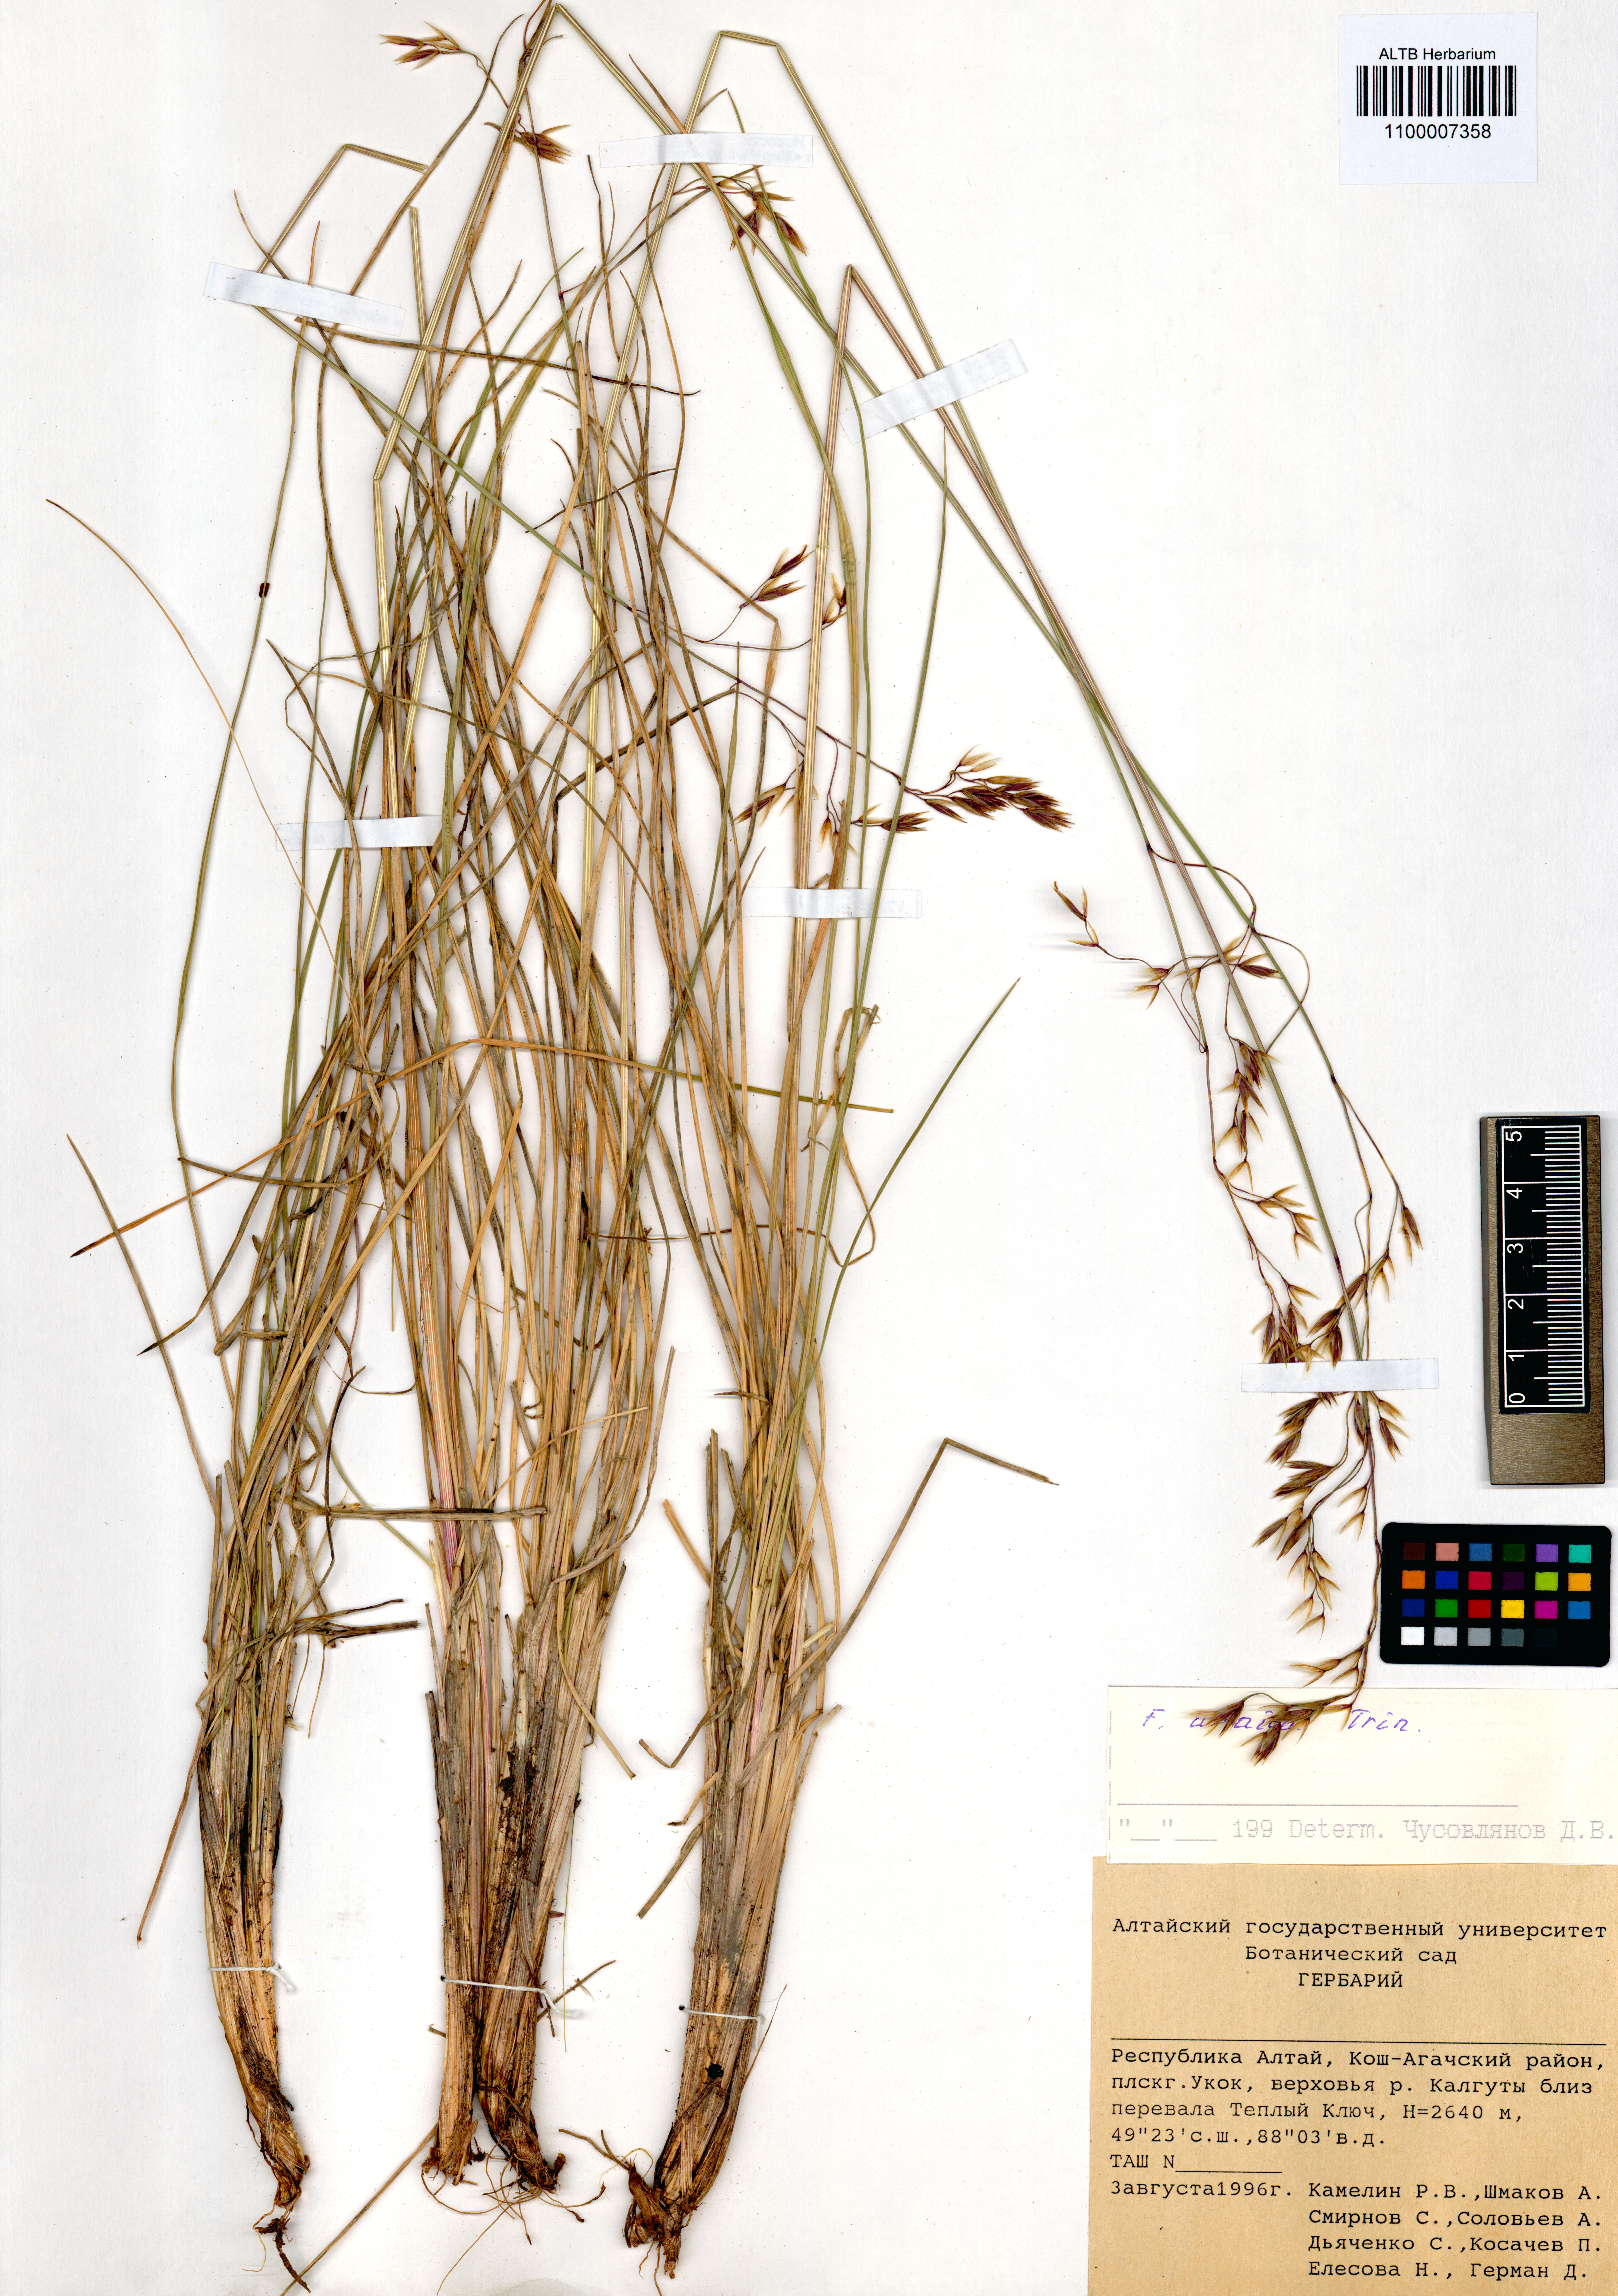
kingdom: Plantae
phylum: Tracheophyta
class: Liliopsida
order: Poales
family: Poaceae
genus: Festuca
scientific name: Festuca altaica
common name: Northern rough fescue
